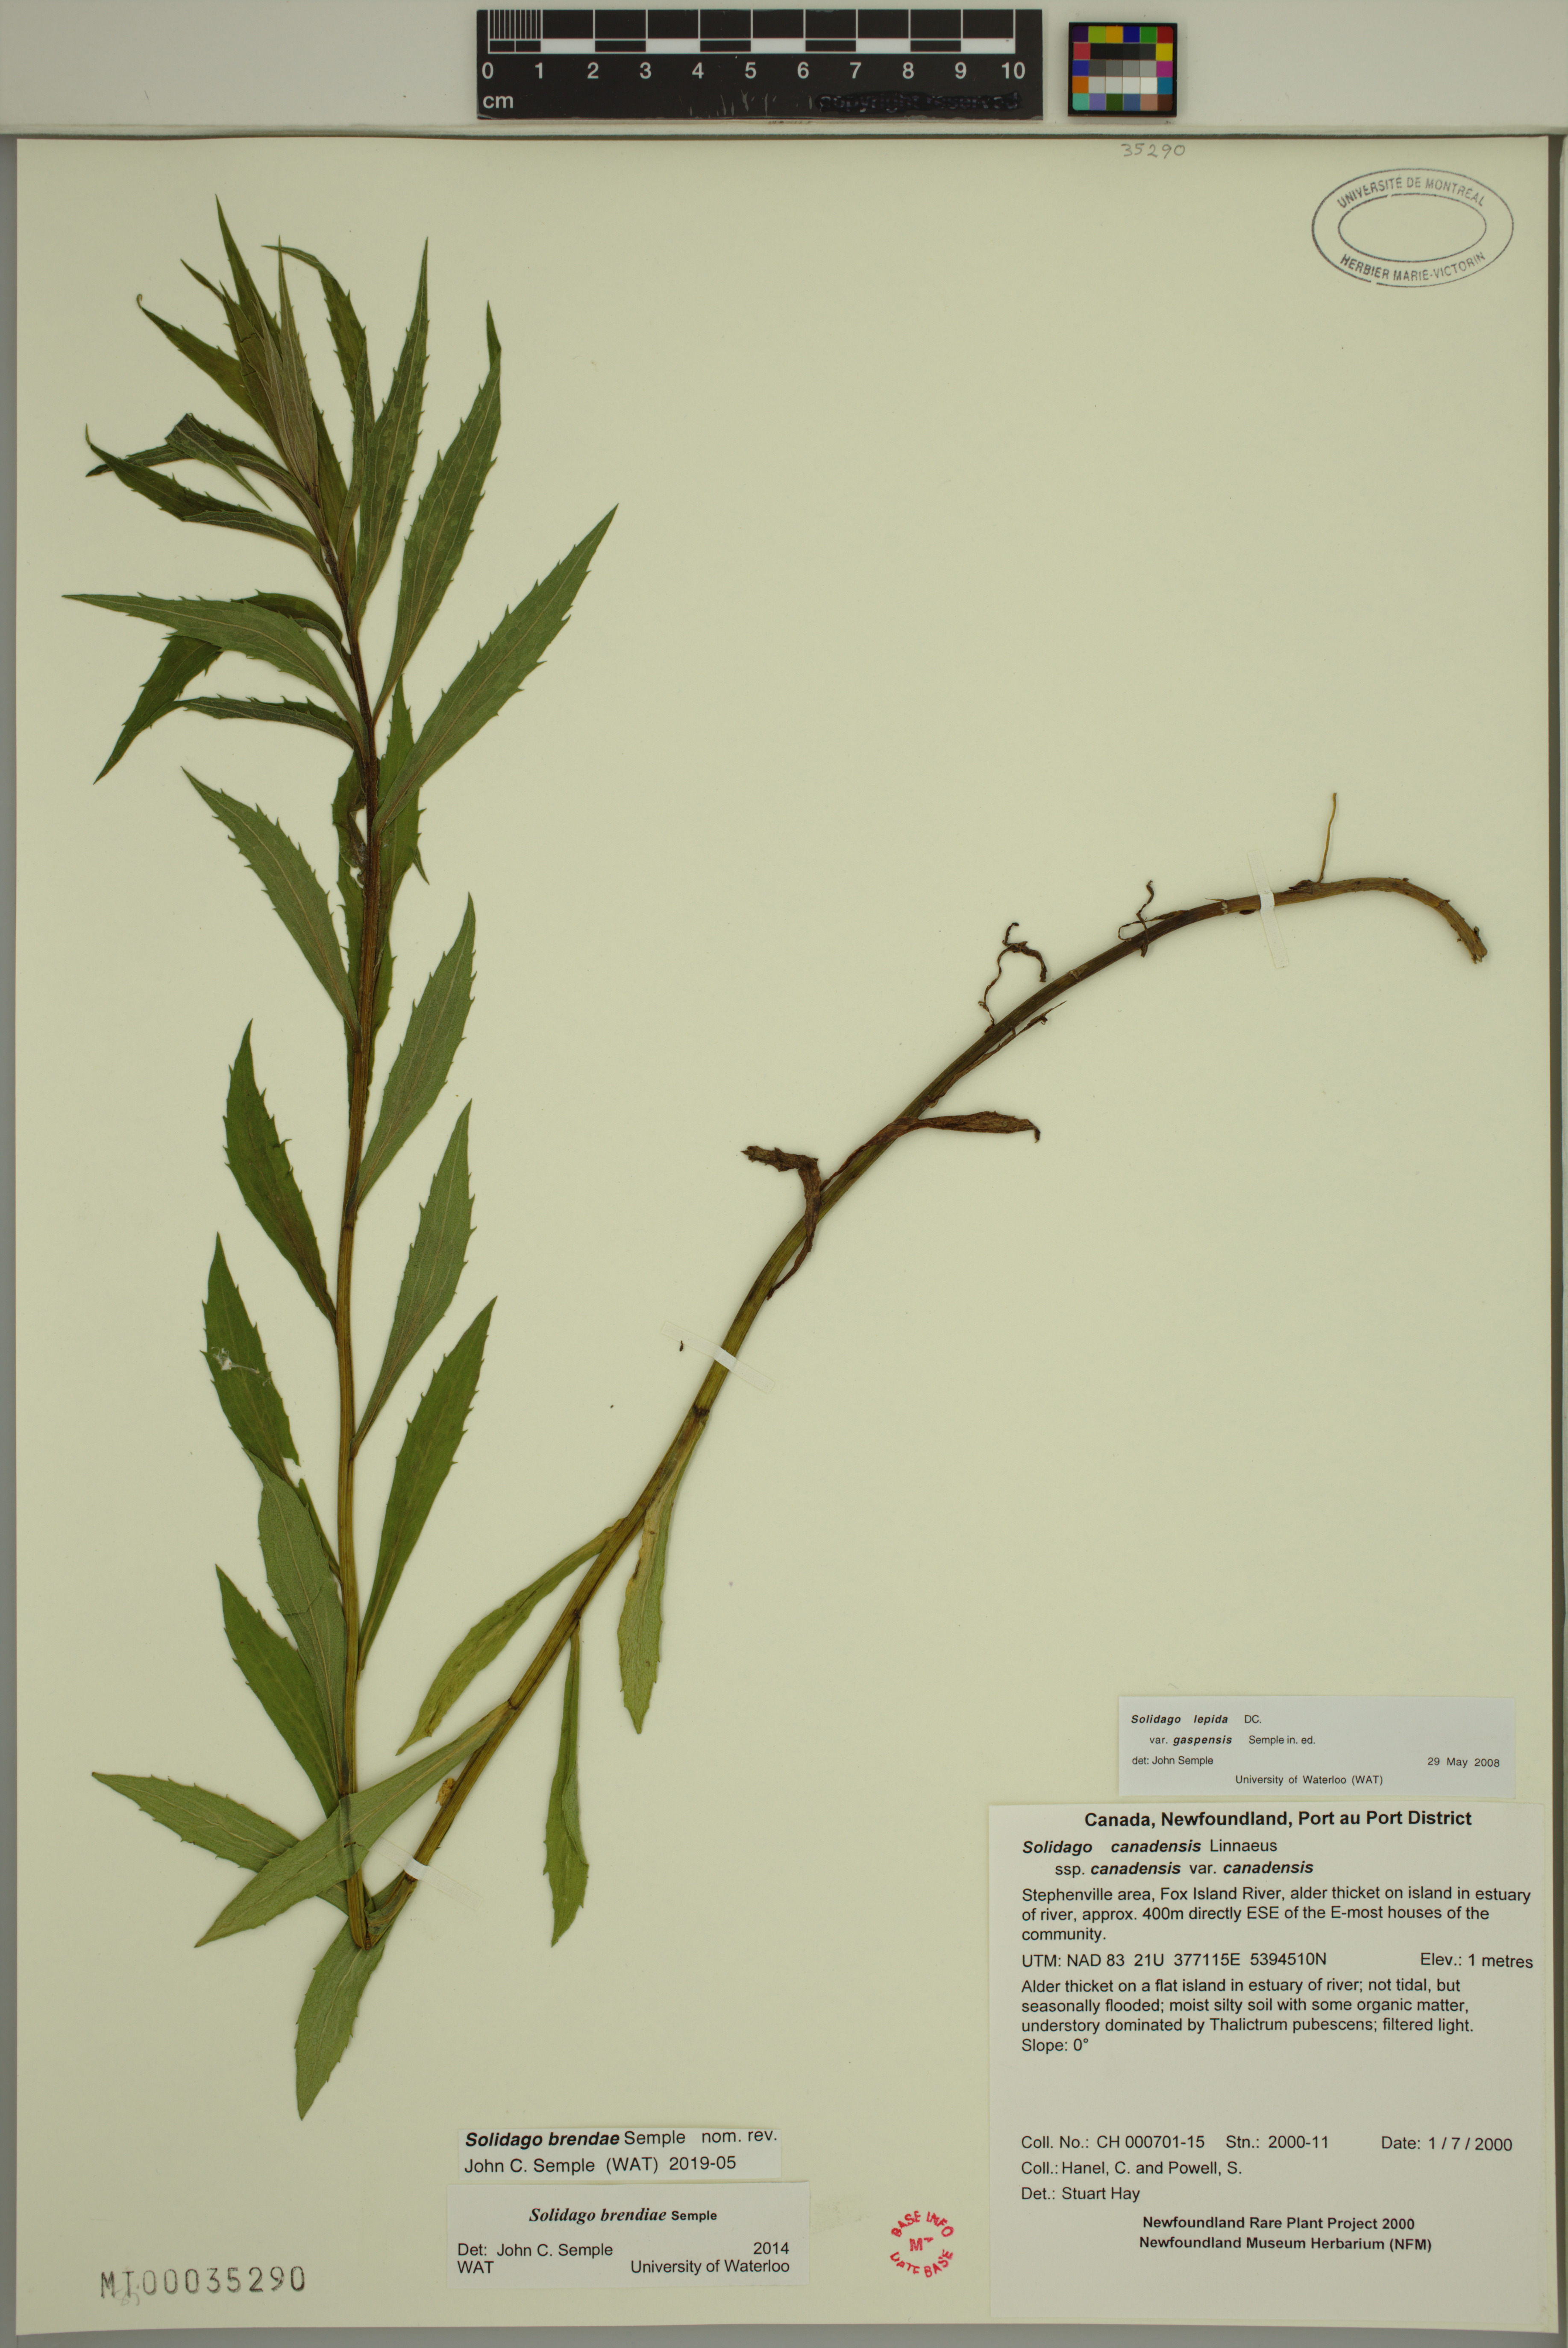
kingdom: Plantae
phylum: Tracheophyta
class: Magnoliopsida
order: Asterales
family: Asteraceae
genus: Solidago
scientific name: Solidago brendae
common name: Brenda's goldenrod
